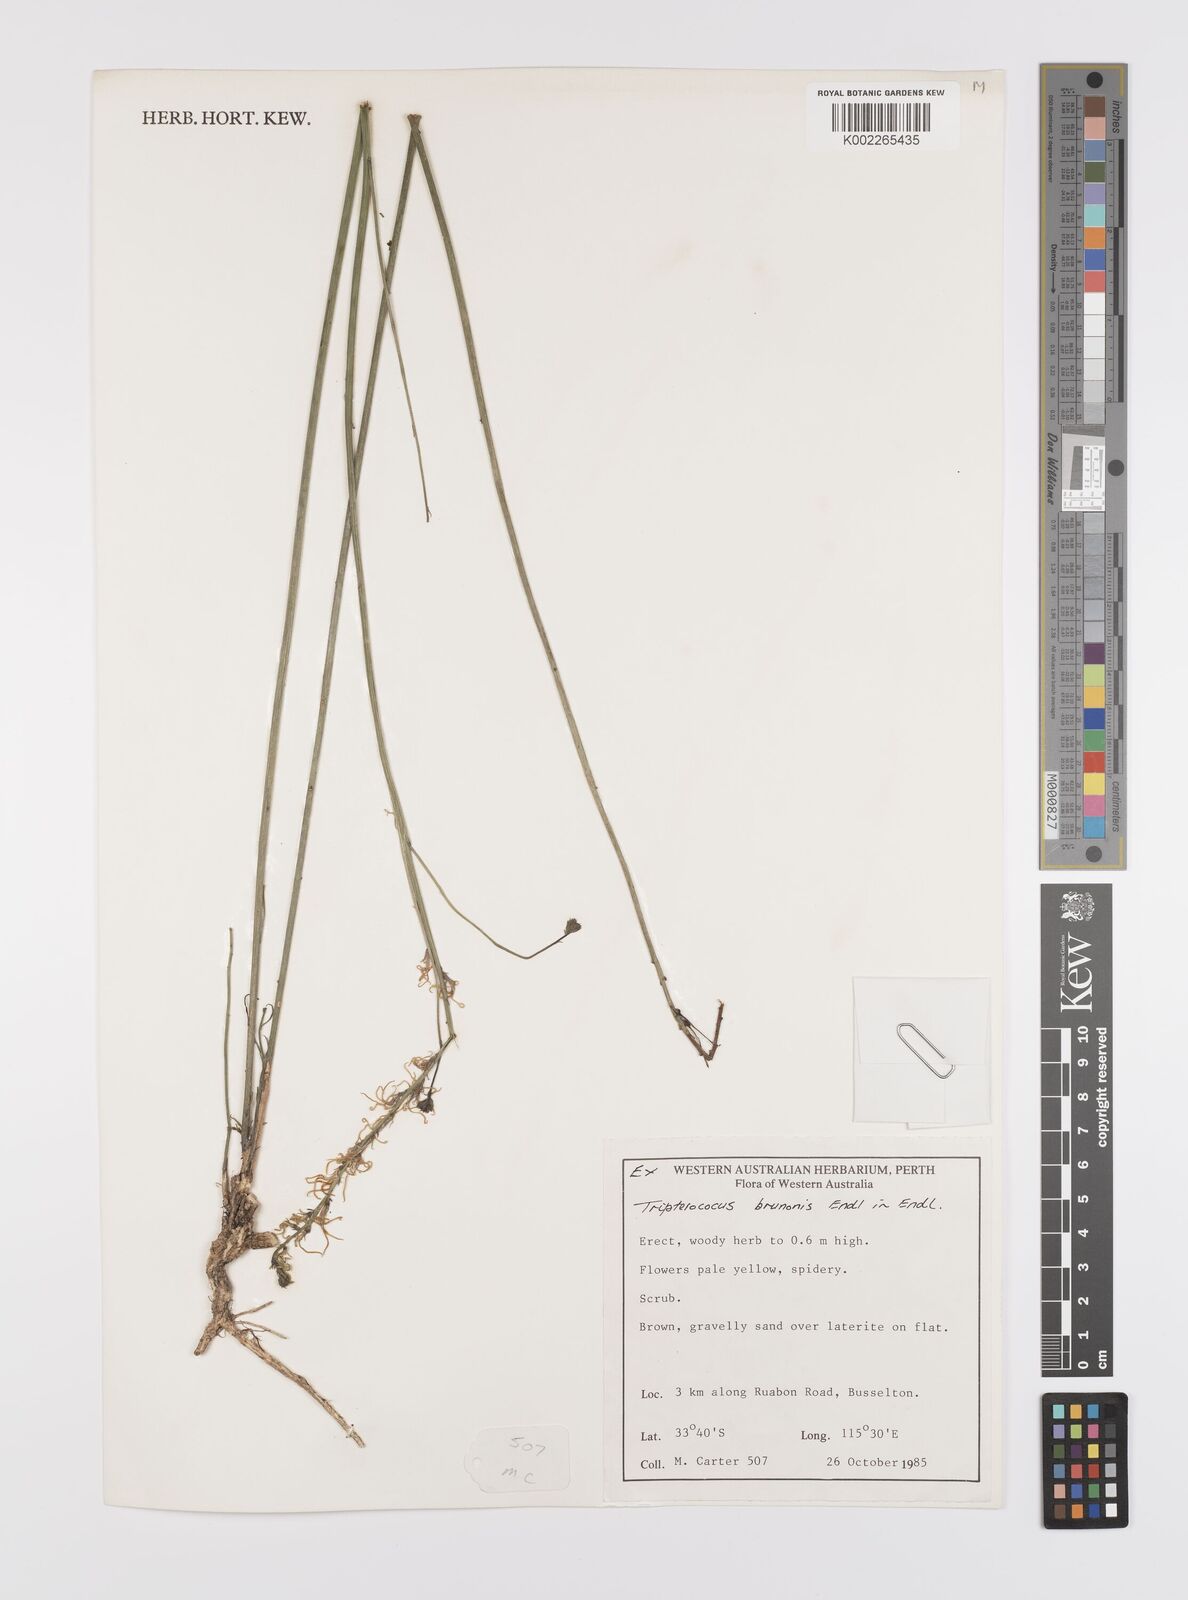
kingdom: Plantae
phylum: Tracheophyta
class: Magnoliopsida
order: Celastrales
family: Celastraceae
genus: Tripterococcus
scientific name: Tripterococcus brunonis
